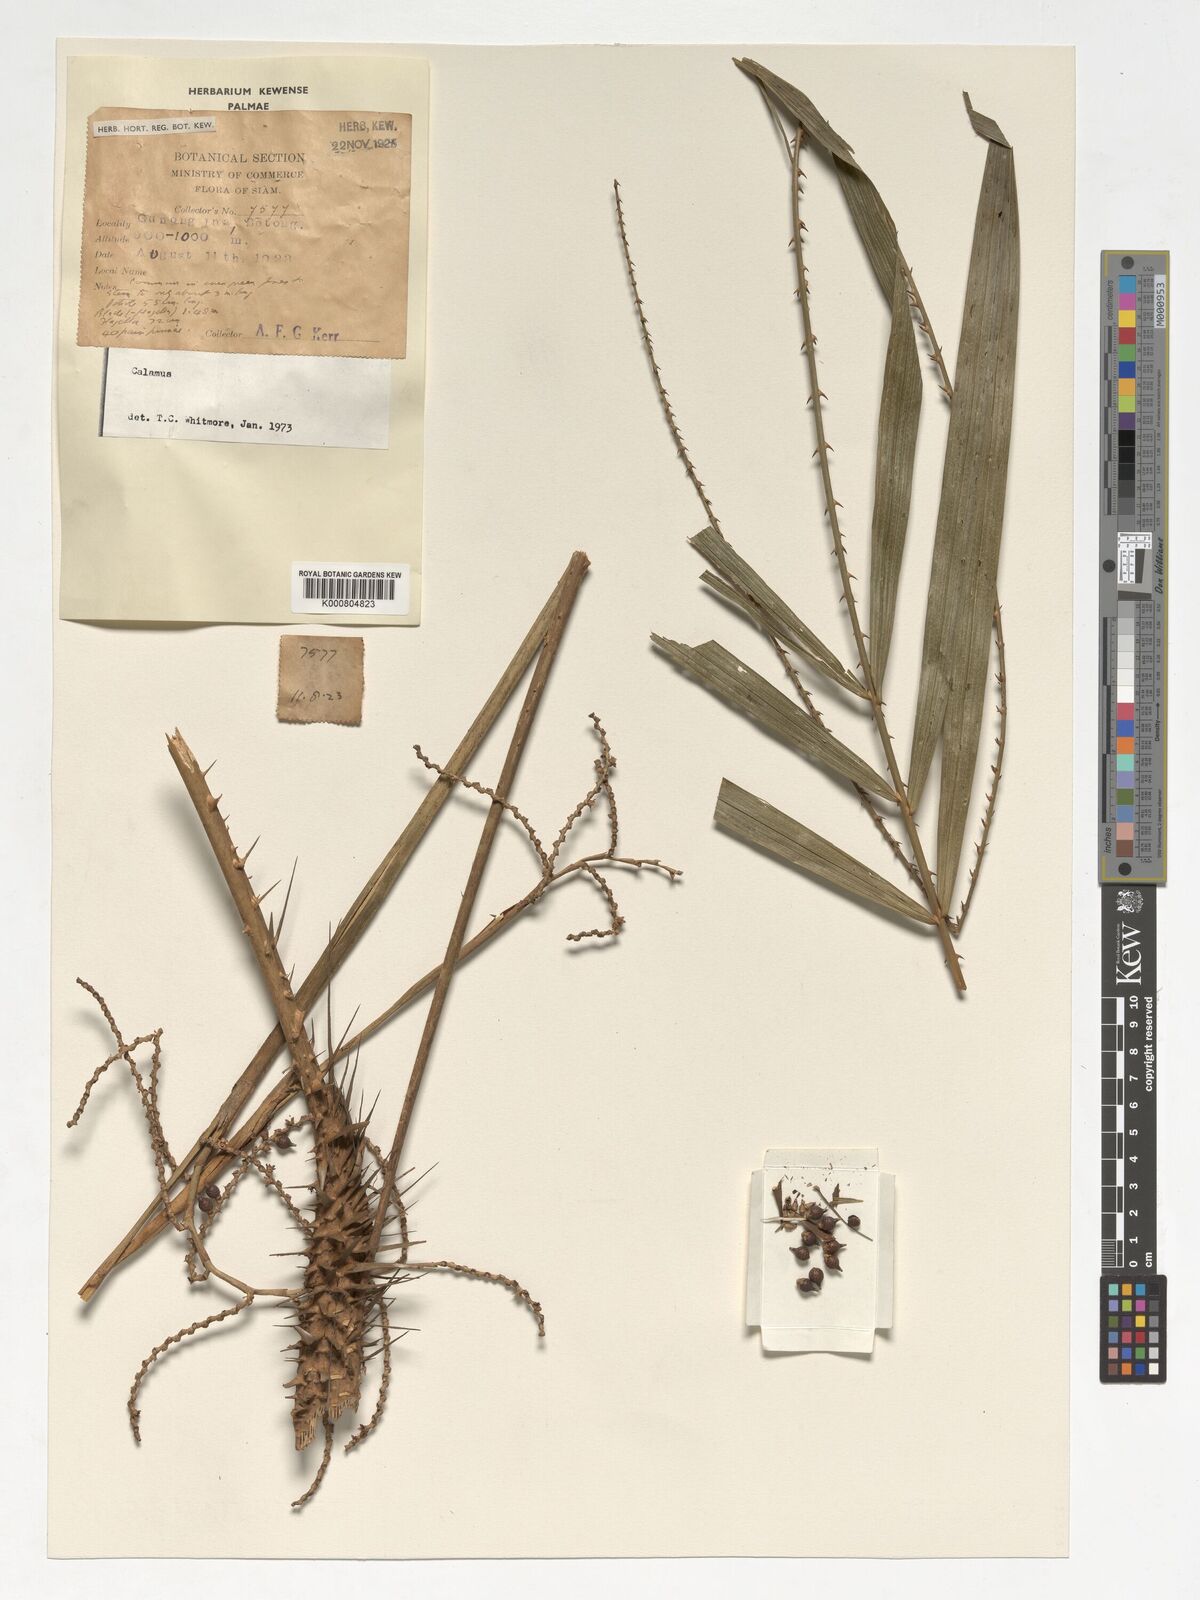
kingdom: Plantae
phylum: Tracheophyta
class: Liliopsida
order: Arecales
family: Arecaceae
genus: Calamus
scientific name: Calamus
